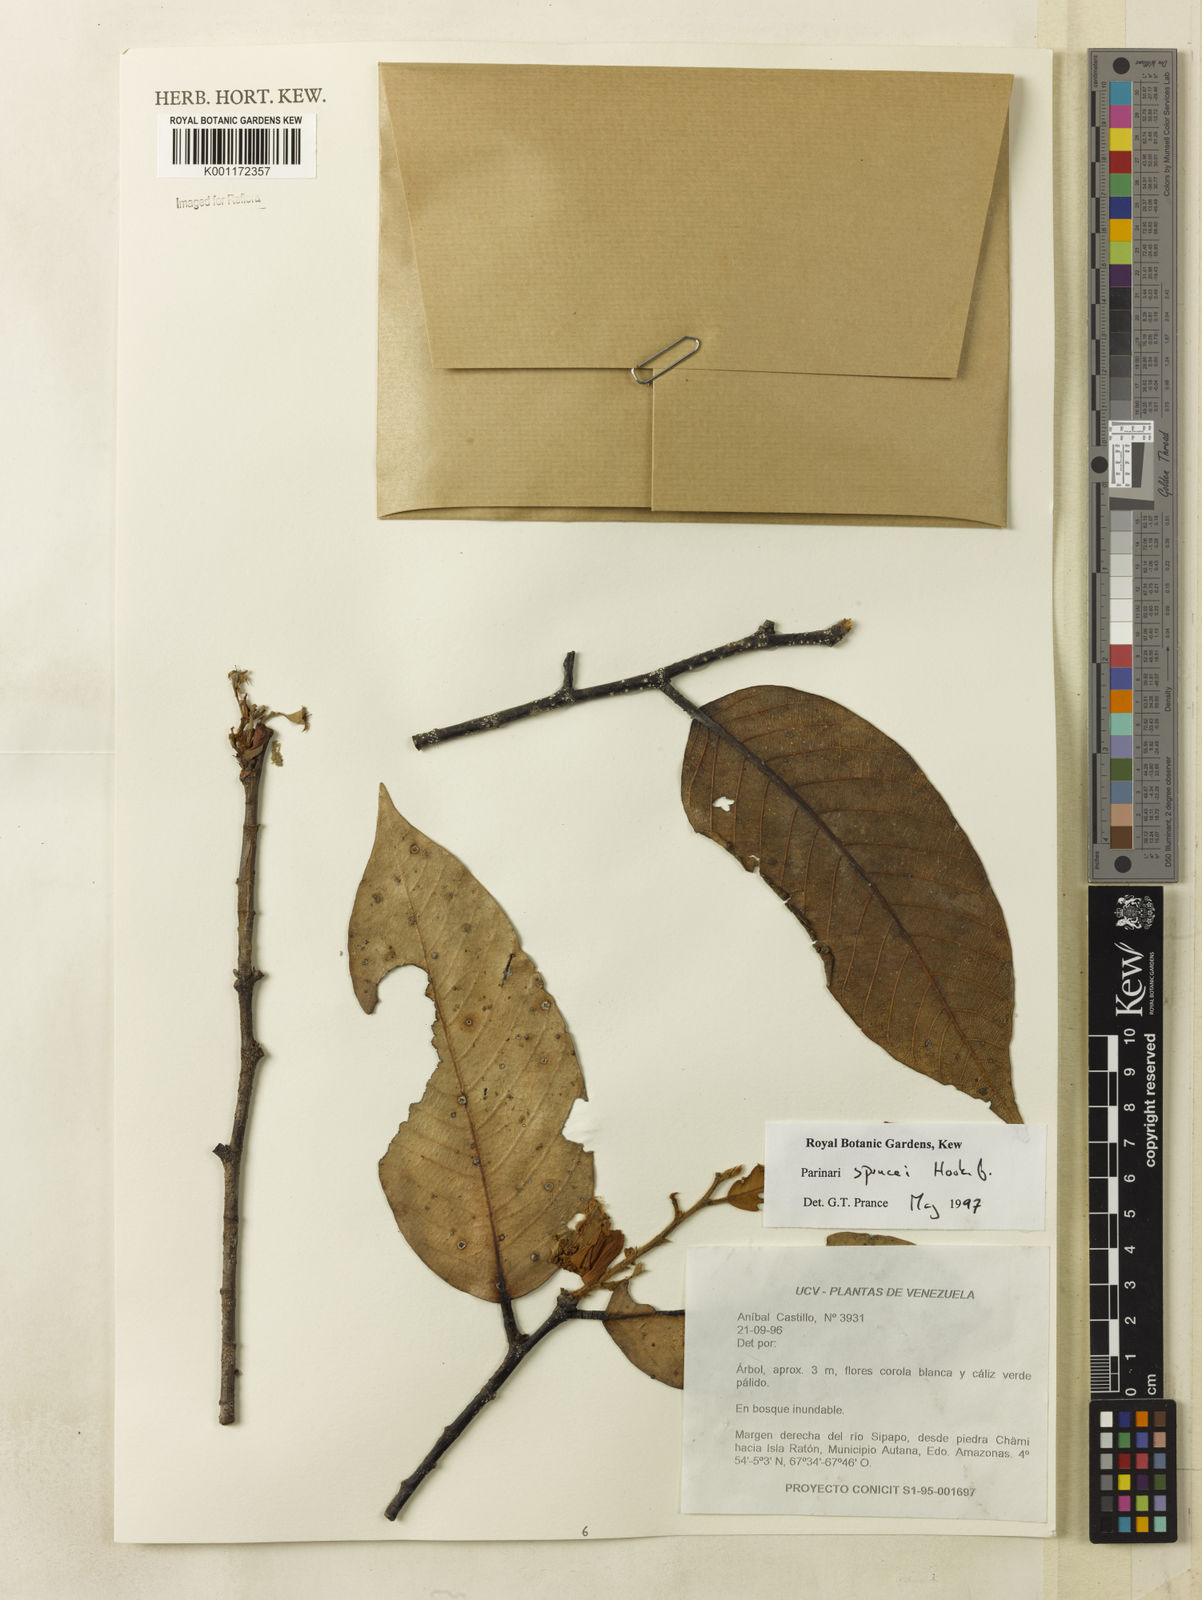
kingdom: Plantae
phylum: Tracheophyta
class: Magnoliopsida
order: Malpighiales
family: Chrysobalanaceae
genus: Parinari
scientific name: Parinari sprucei
